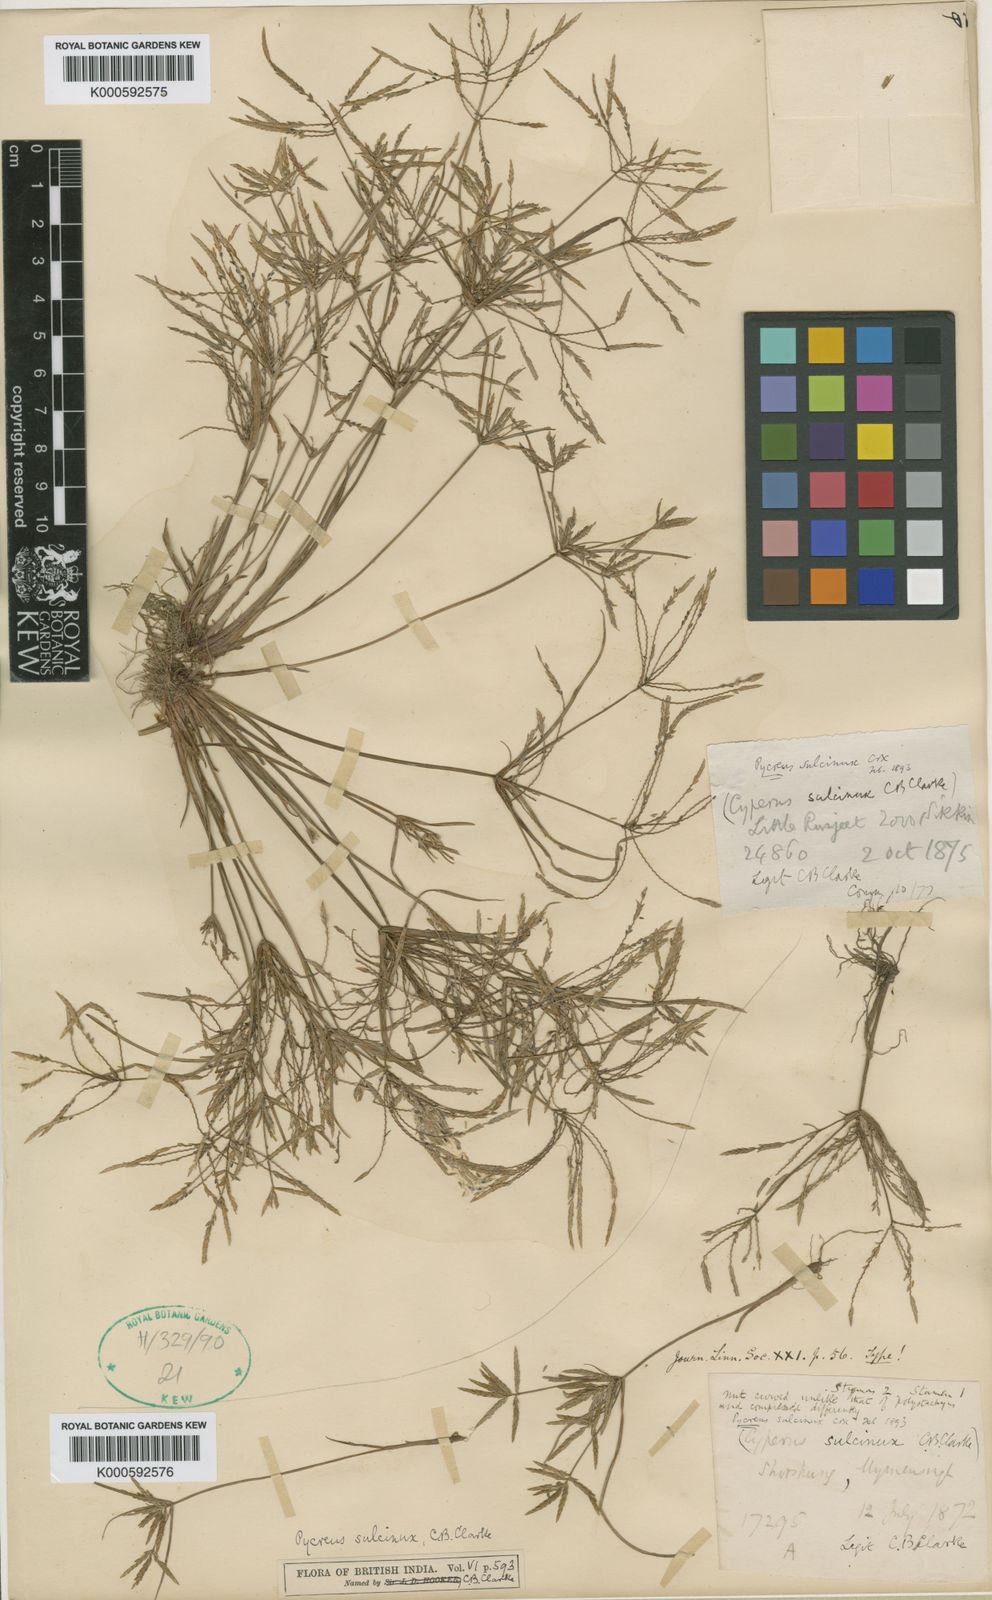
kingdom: Plantae
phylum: Tracheophyta
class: Liliopsida
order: Poales
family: Cyperaceae
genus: Cyperus
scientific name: Cyperus sulcinux
